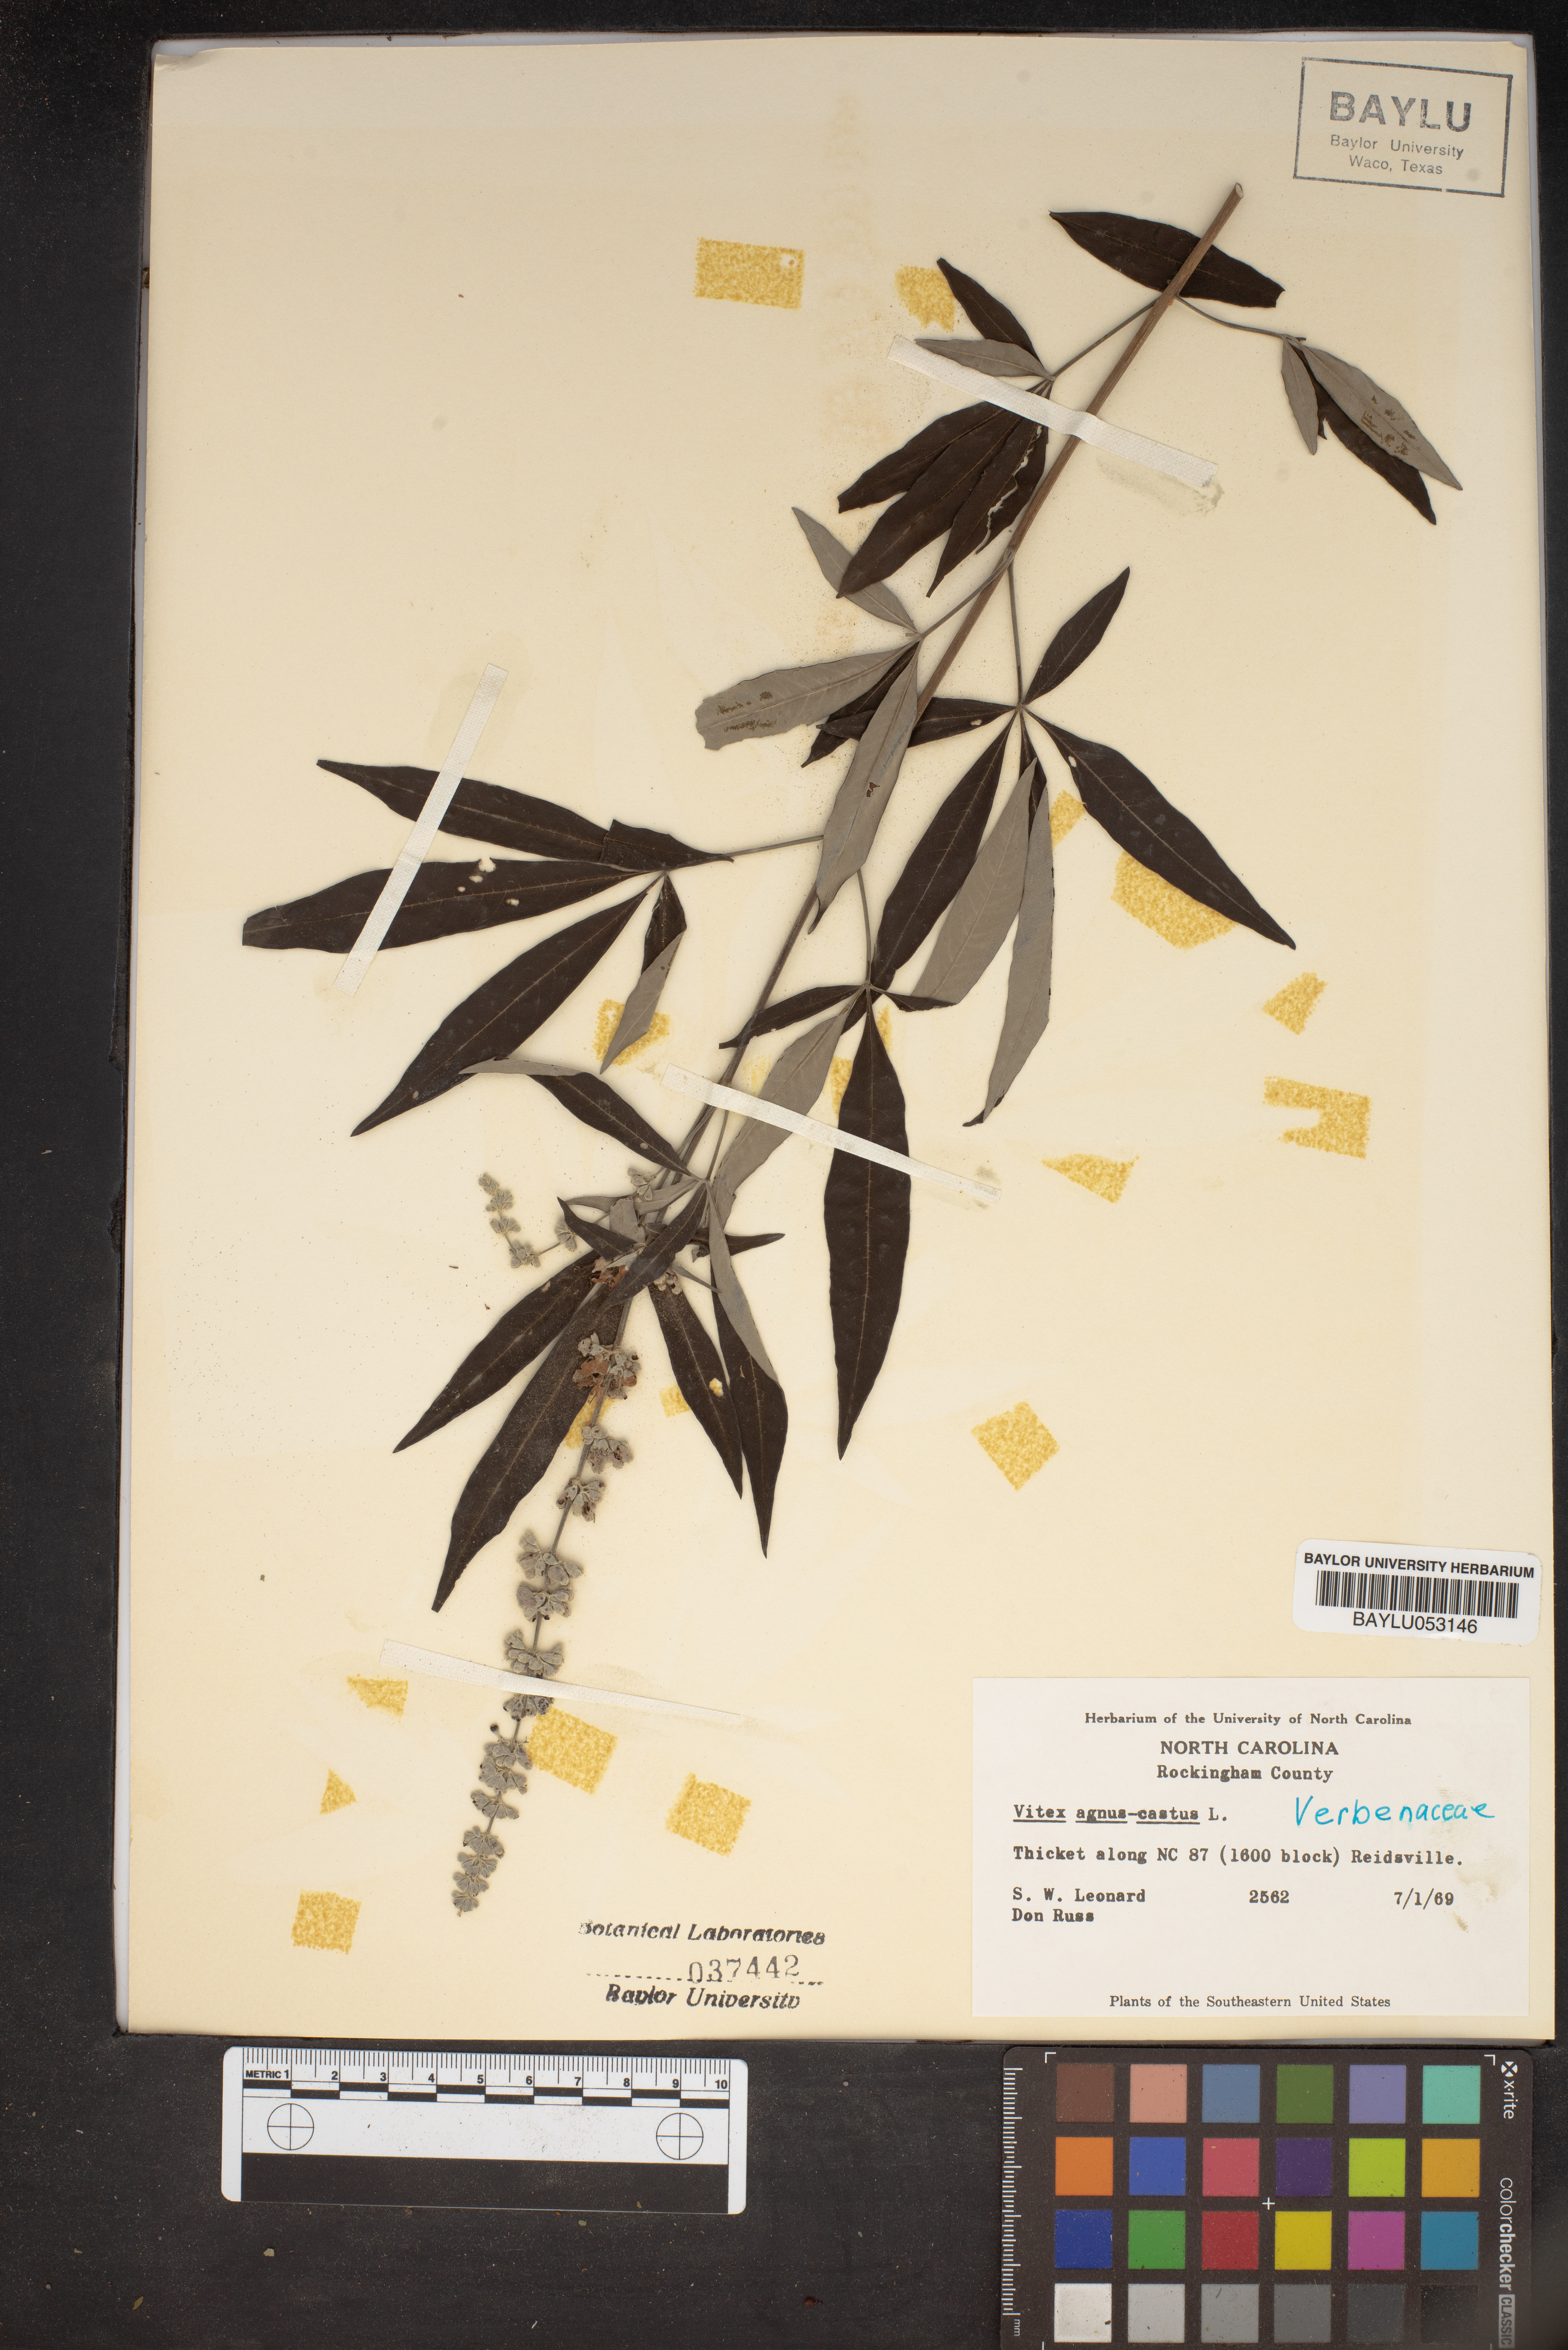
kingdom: Plantae
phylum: Tracheophyta
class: Magnoliopsida
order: Lamiales
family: Lamiaceae
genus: Vitex
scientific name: Vitex agnus-castus
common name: Chasteberry
